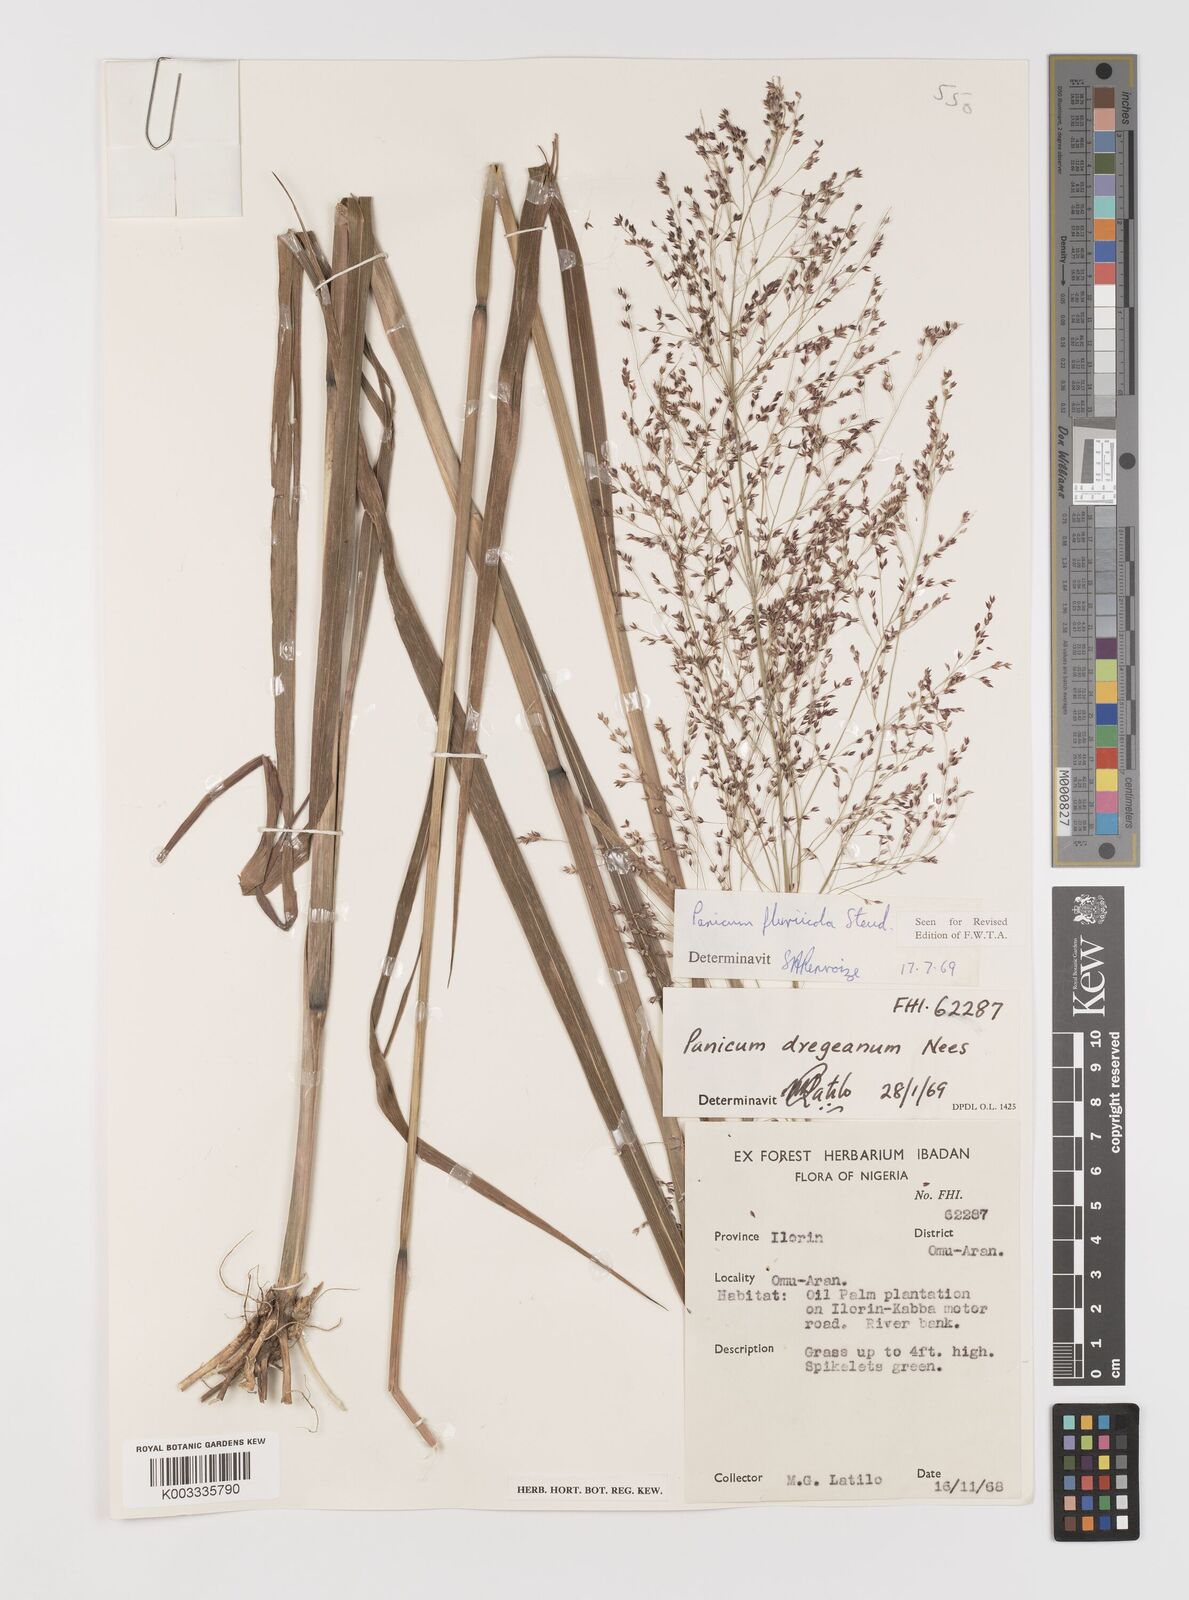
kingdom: Plantae
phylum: Tracheophyta
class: Liliopsida
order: Poales
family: Poaceae
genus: Panicum
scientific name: Panicum fluviicola
